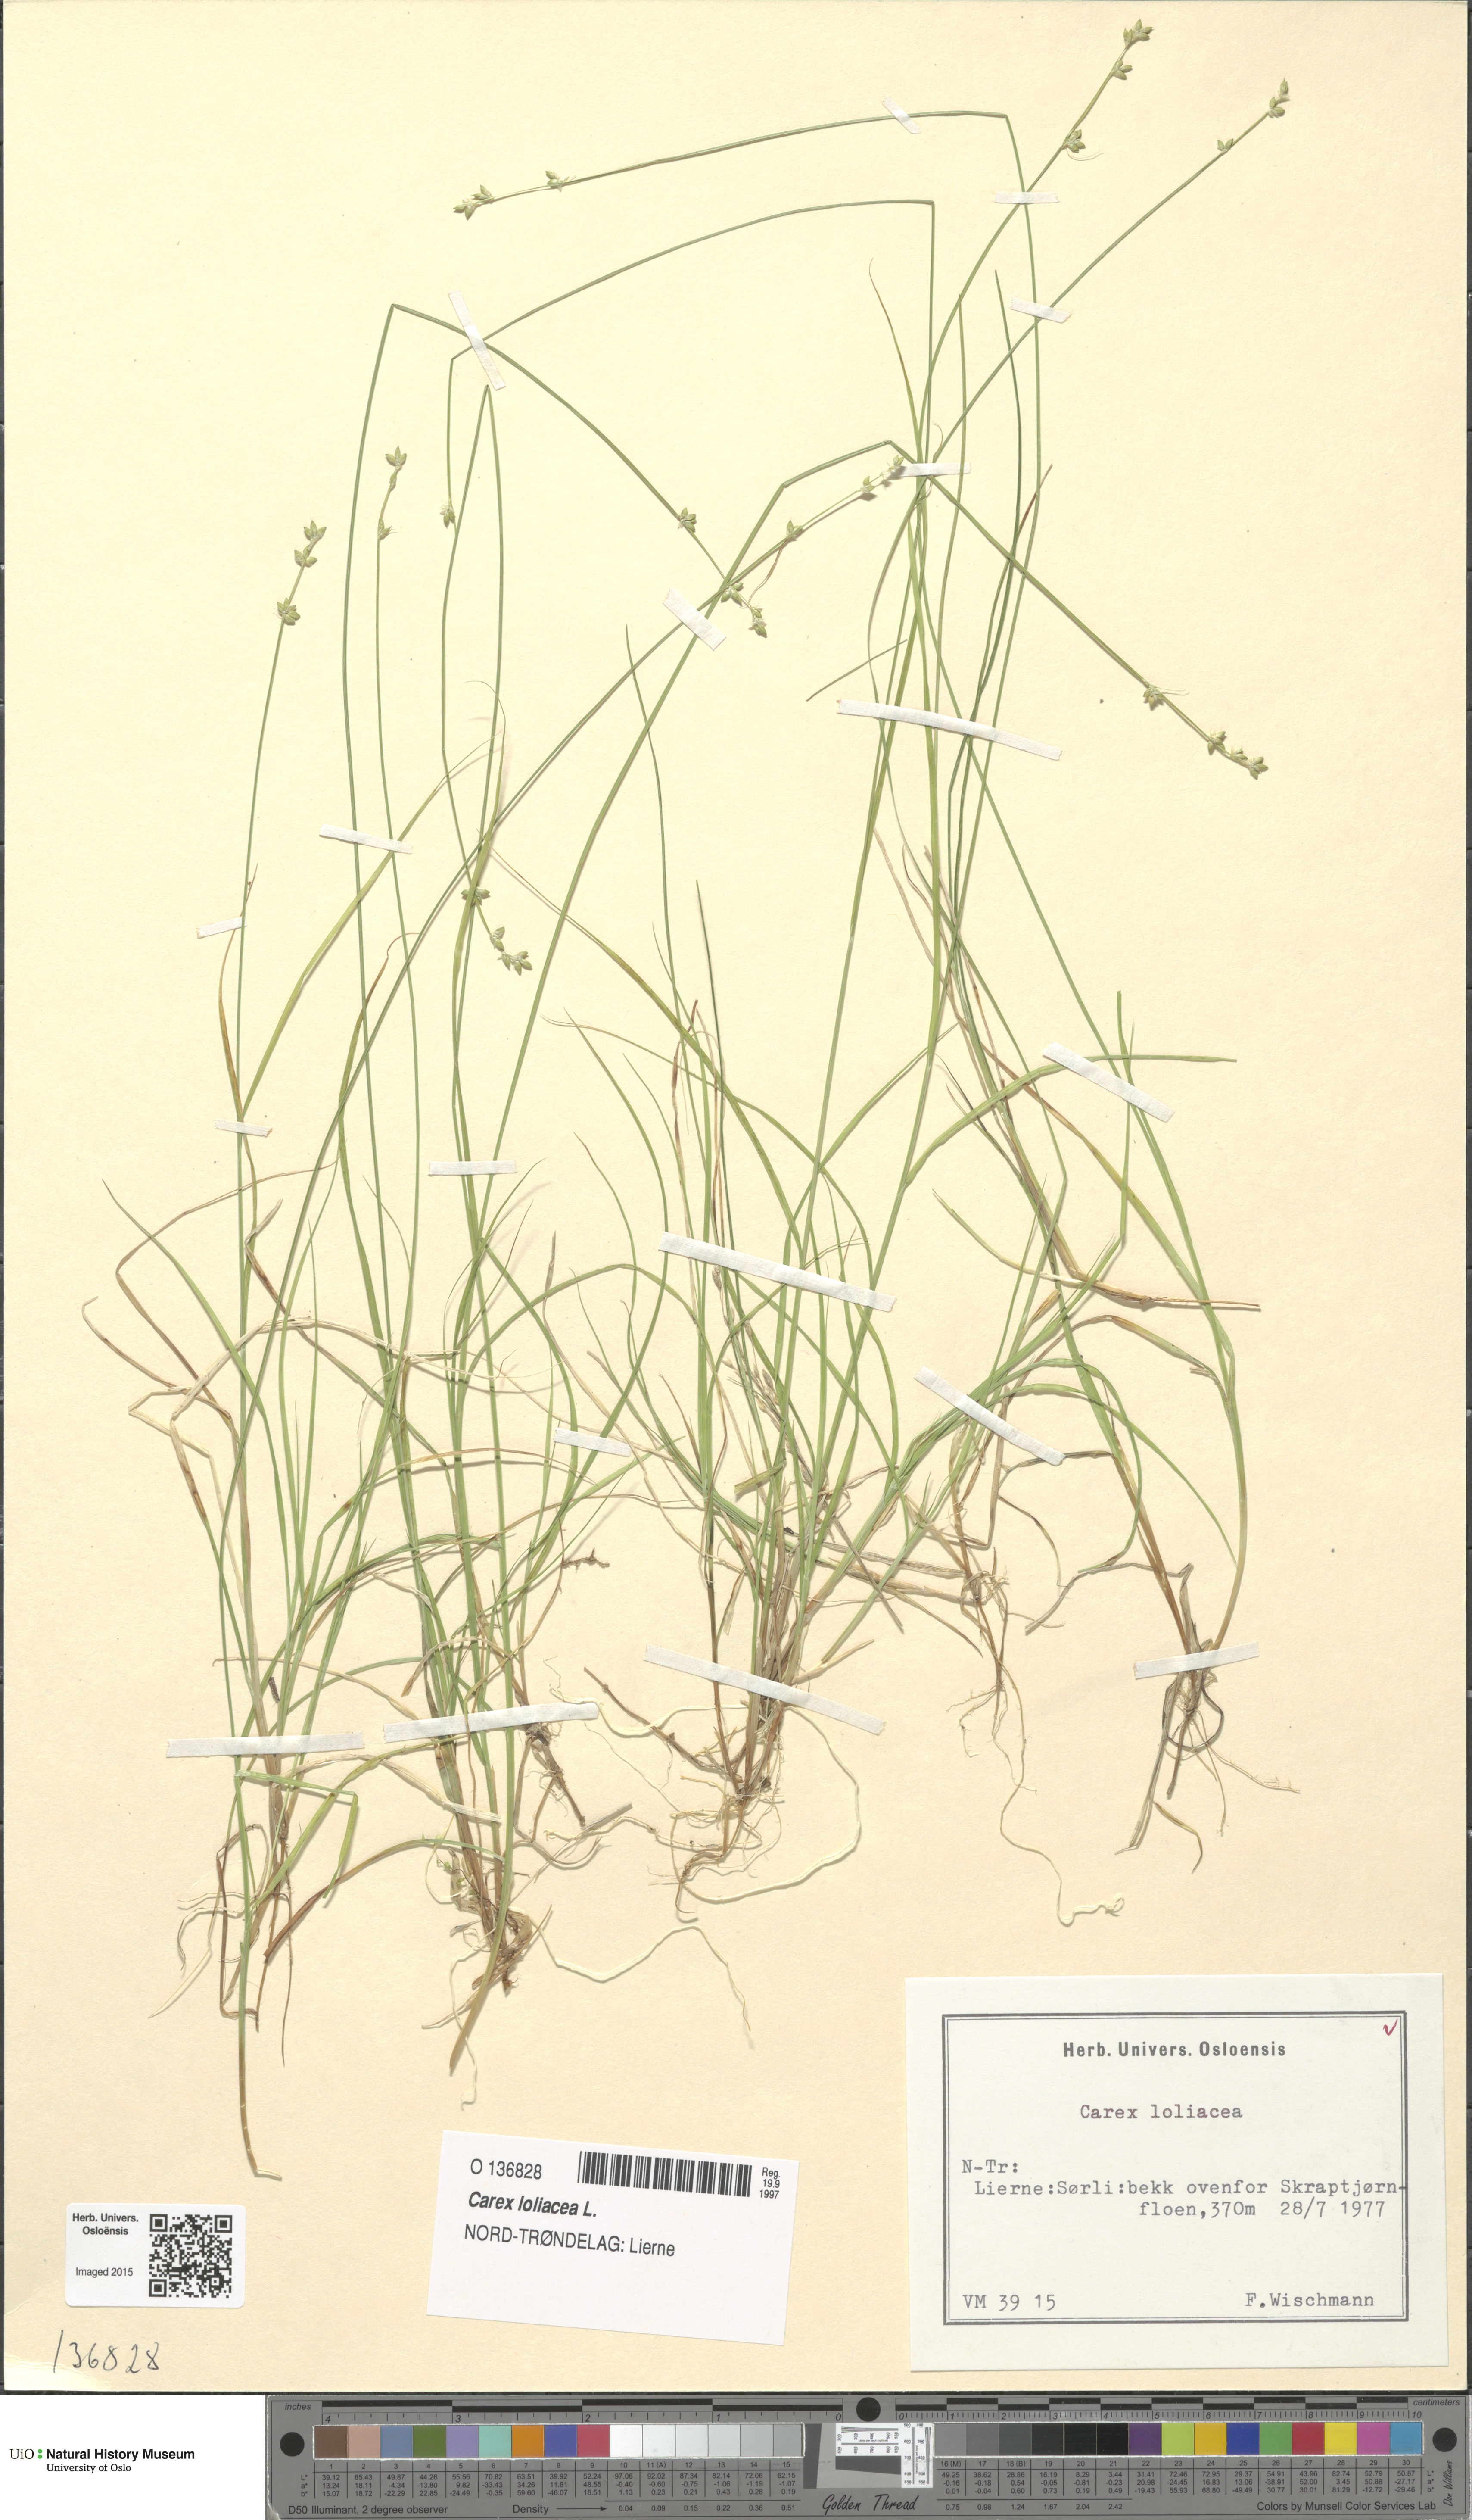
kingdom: Plantae
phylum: Tracheophyta
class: Liliopsida
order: Poales
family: Cyperaceae
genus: Carex
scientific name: Carex loliacea
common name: Ryegrass sedge
